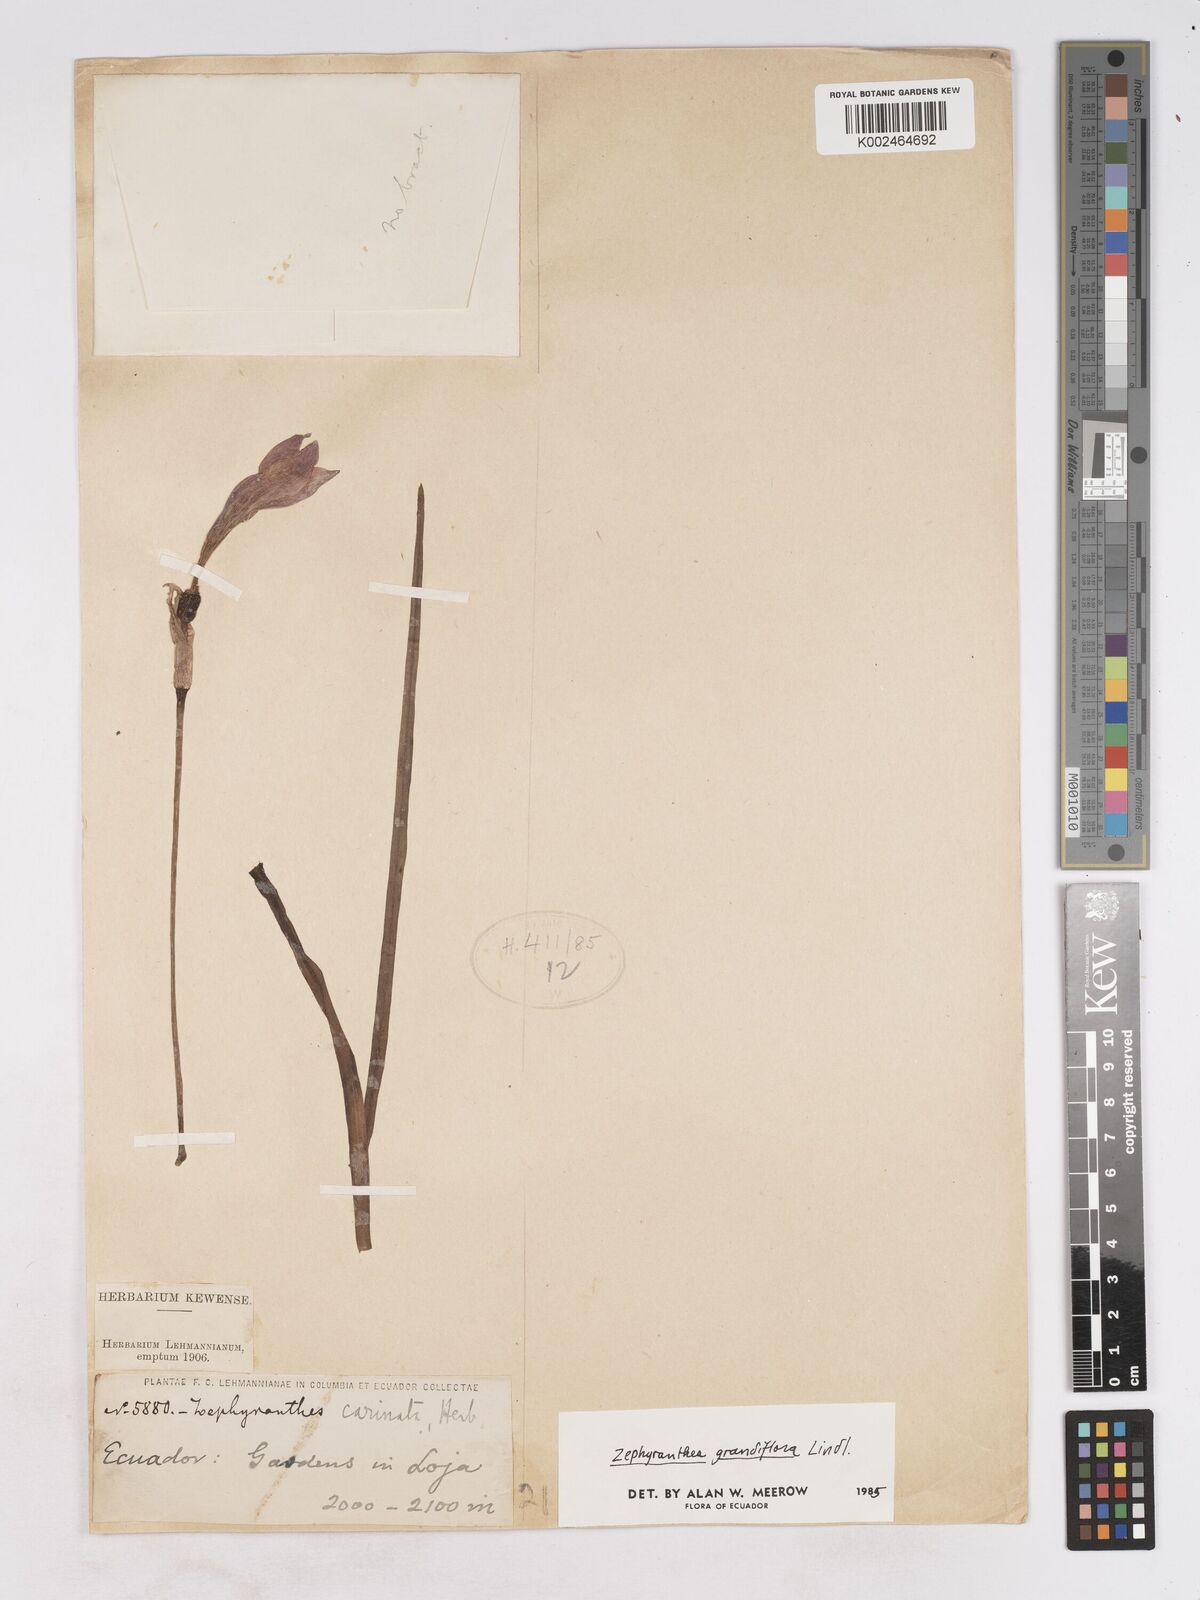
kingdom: Plantae
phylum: Tracheophyta
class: Liliopsida
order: Asparagales
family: Amaryllidaceae
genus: Zephyranthes
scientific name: Zephyranthes minuta
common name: Pink rain lily
